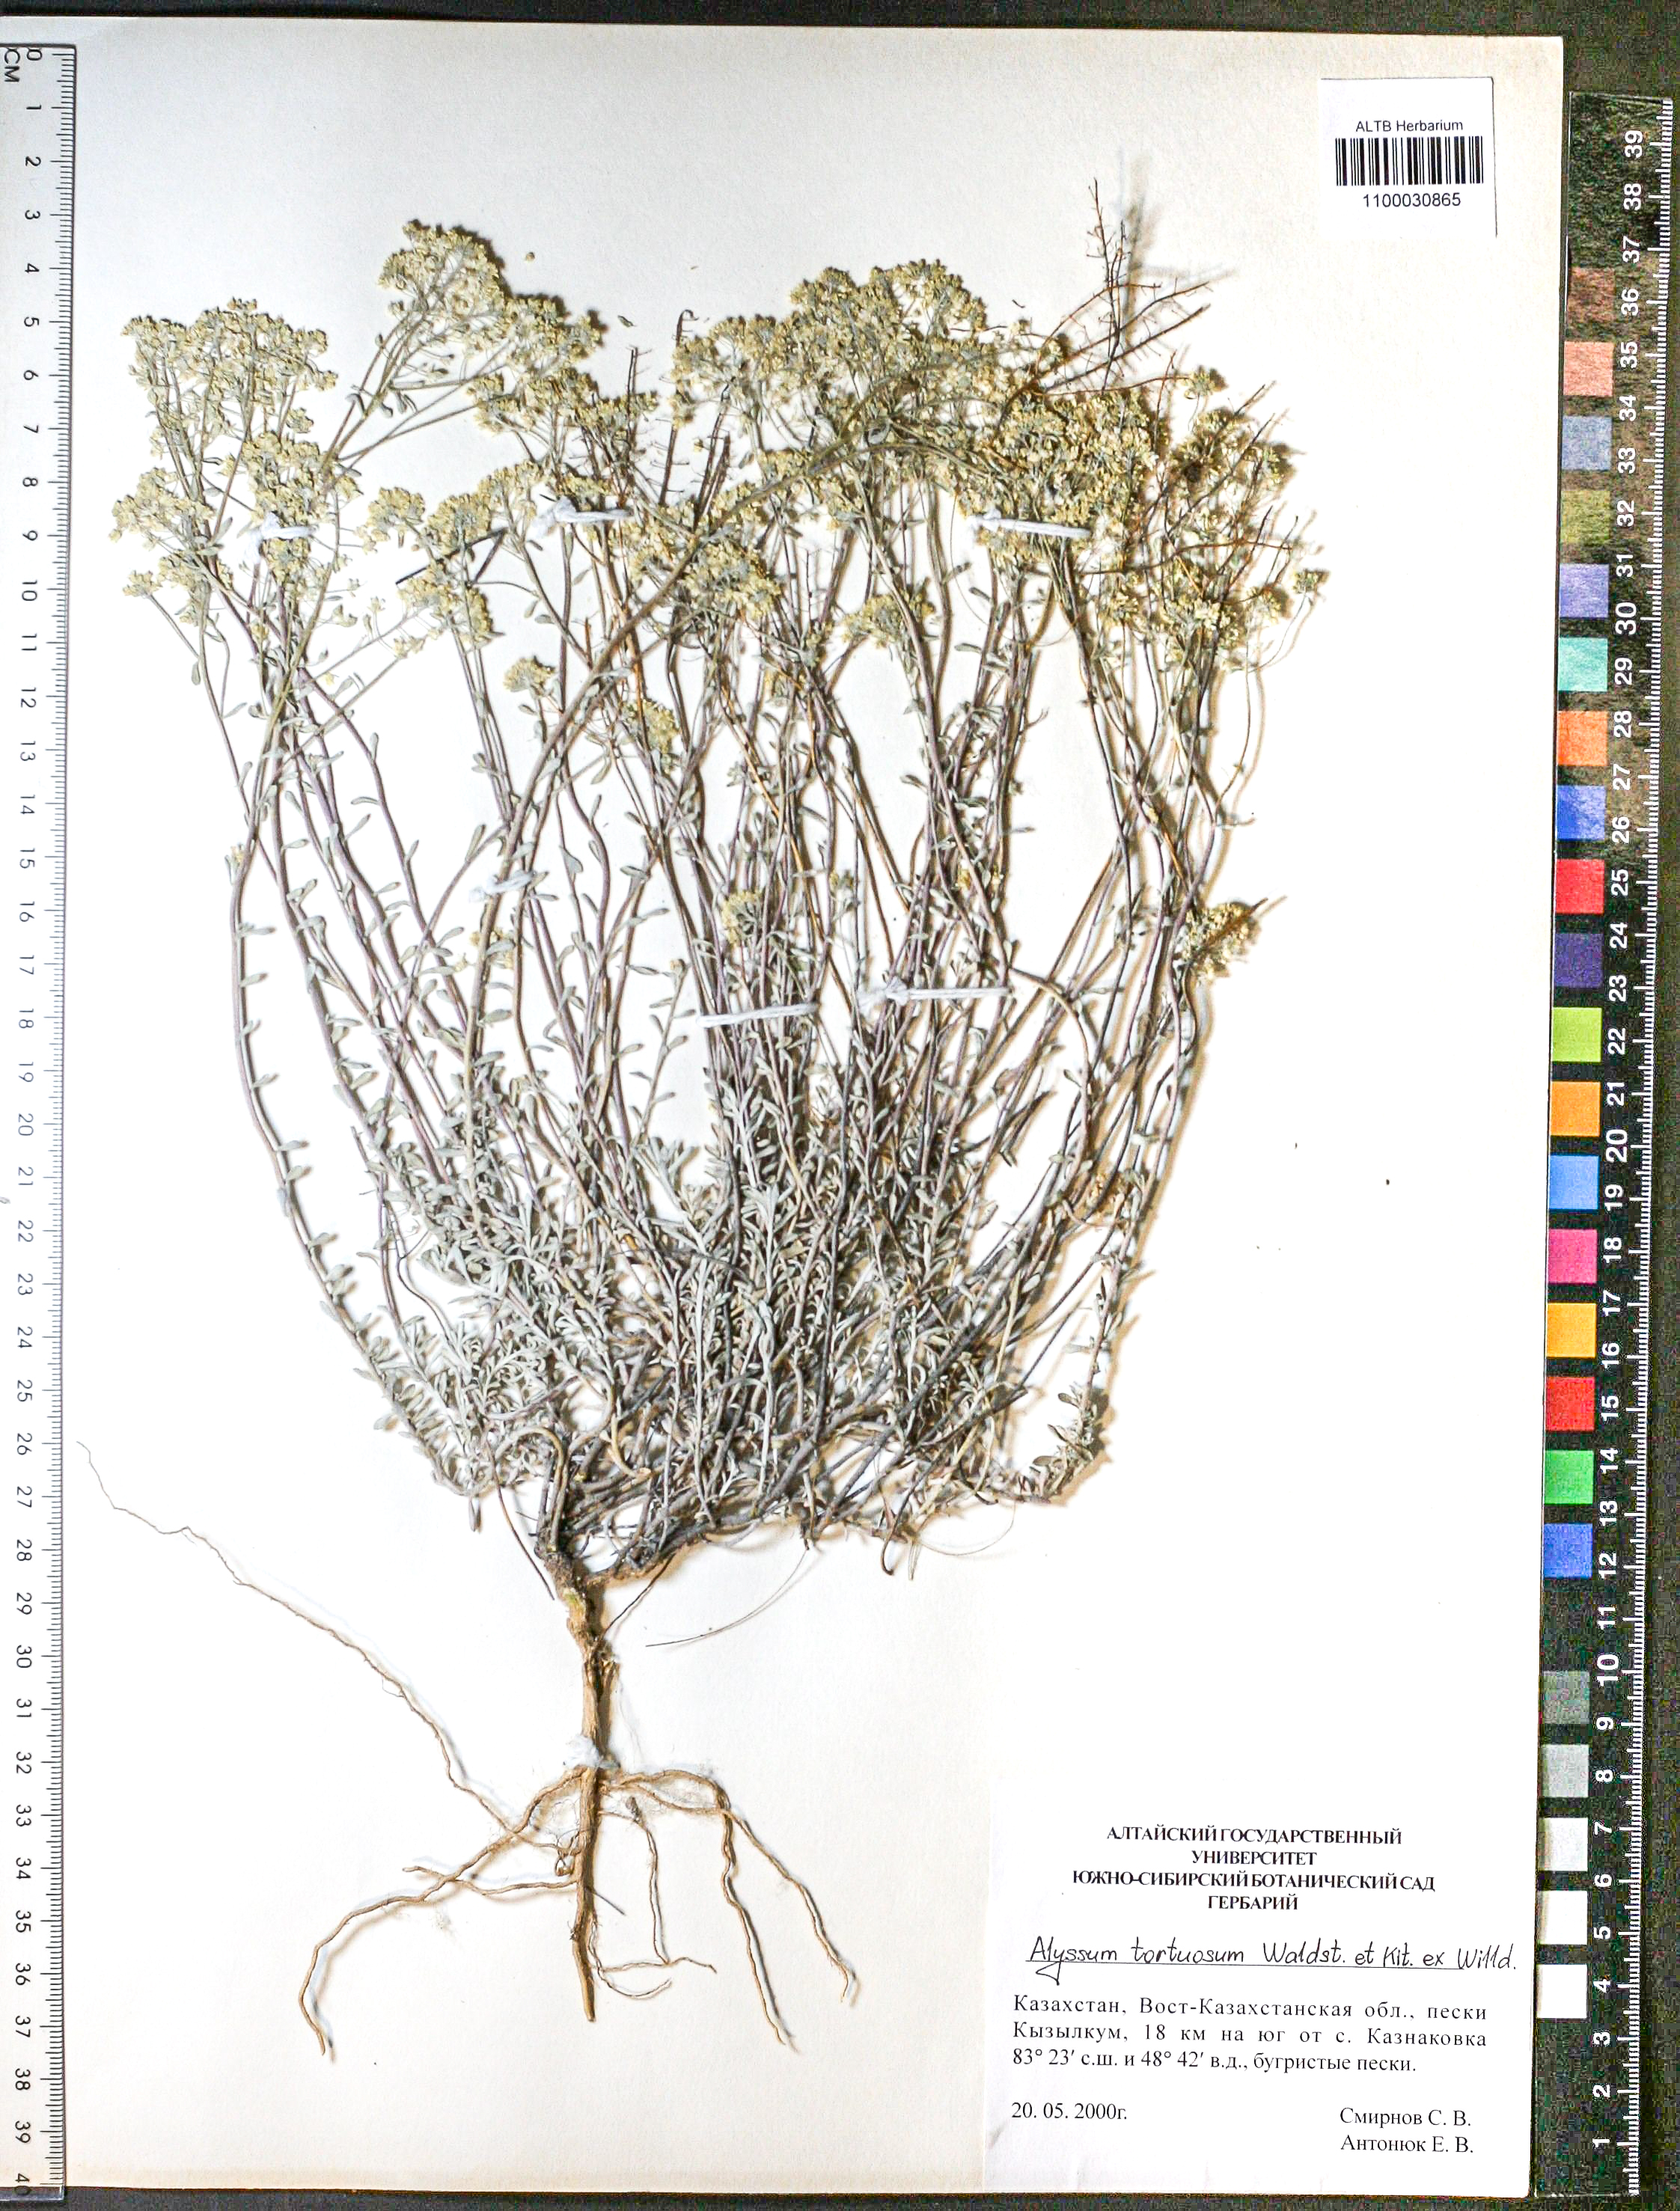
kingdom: Plantae
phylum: Tracheophyta
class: Magnoliopsida
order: Brassicales
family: Brassicaceae
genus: Odontarrhena
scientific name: Odontarrhena alpestris
